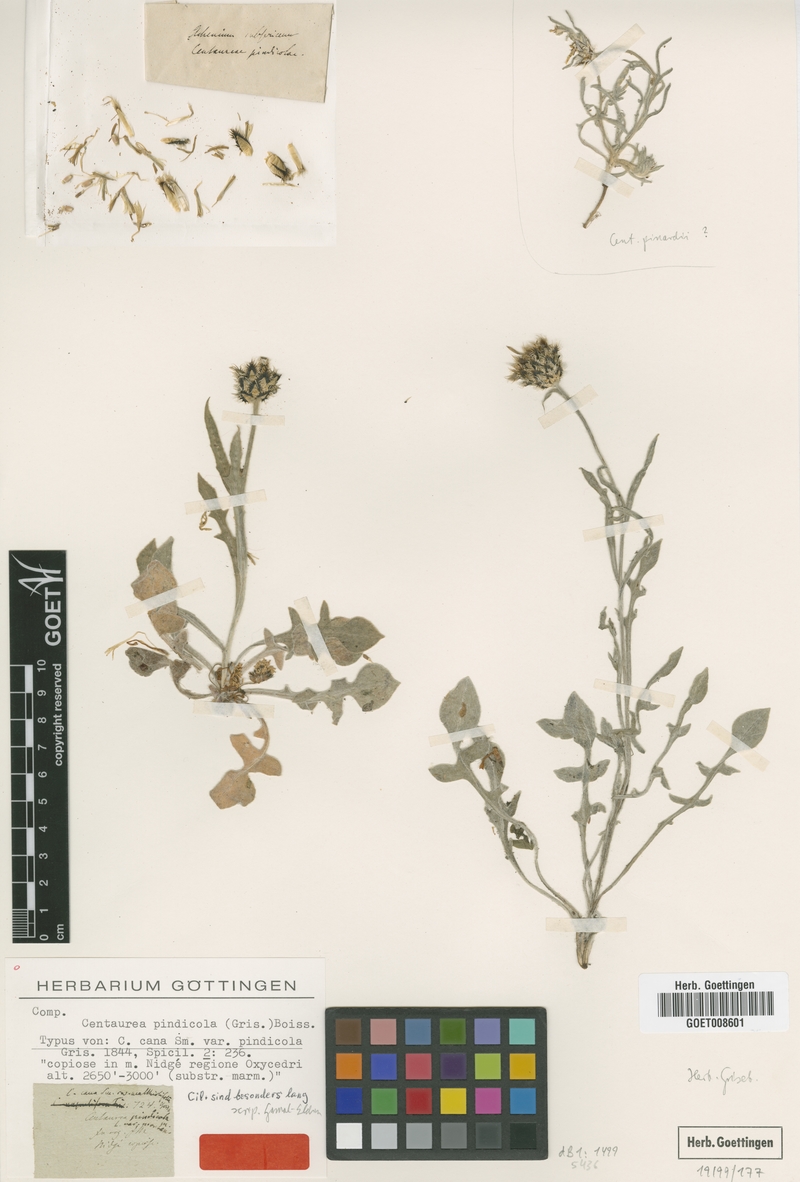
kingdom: Plantae
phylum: Tracheophyta
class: Magnoliopsida
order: Asterales
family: Asteraceae
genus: Centaurea
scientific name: Centaurea pindicola
